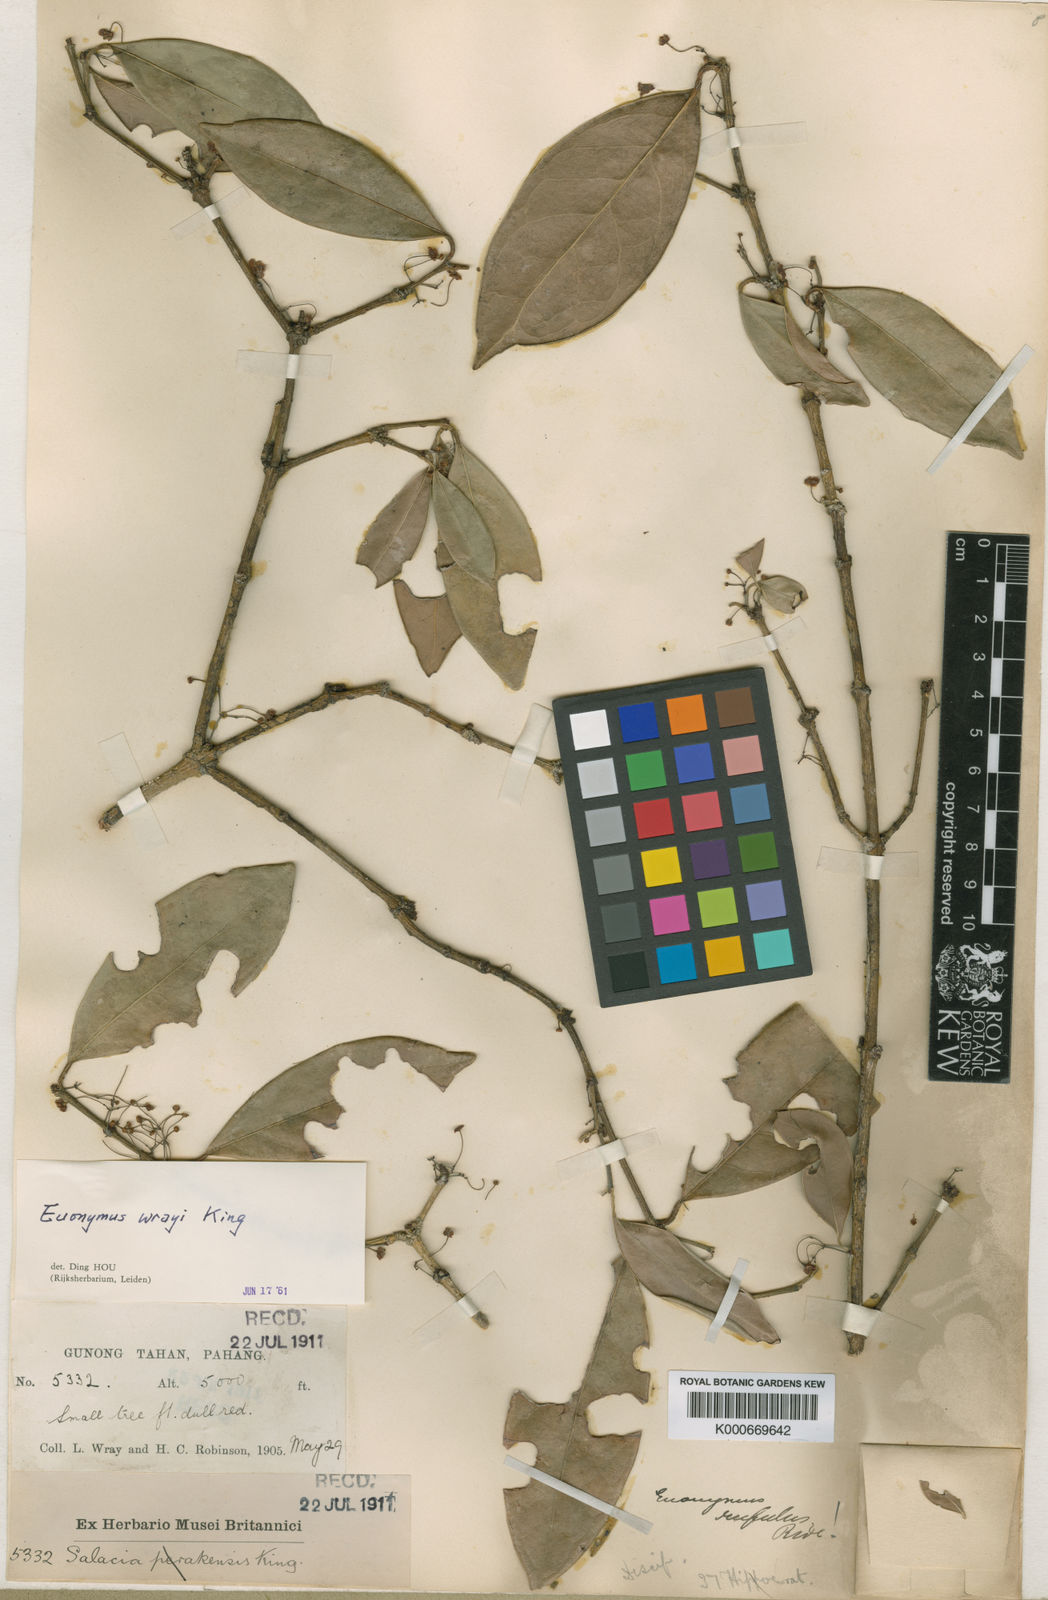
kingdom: Plantae
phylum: Tracheophyta
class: Magnoliopsida
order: Celastrales
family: Celastraceae
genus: Euonymus
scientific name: Euonymus wrayi
